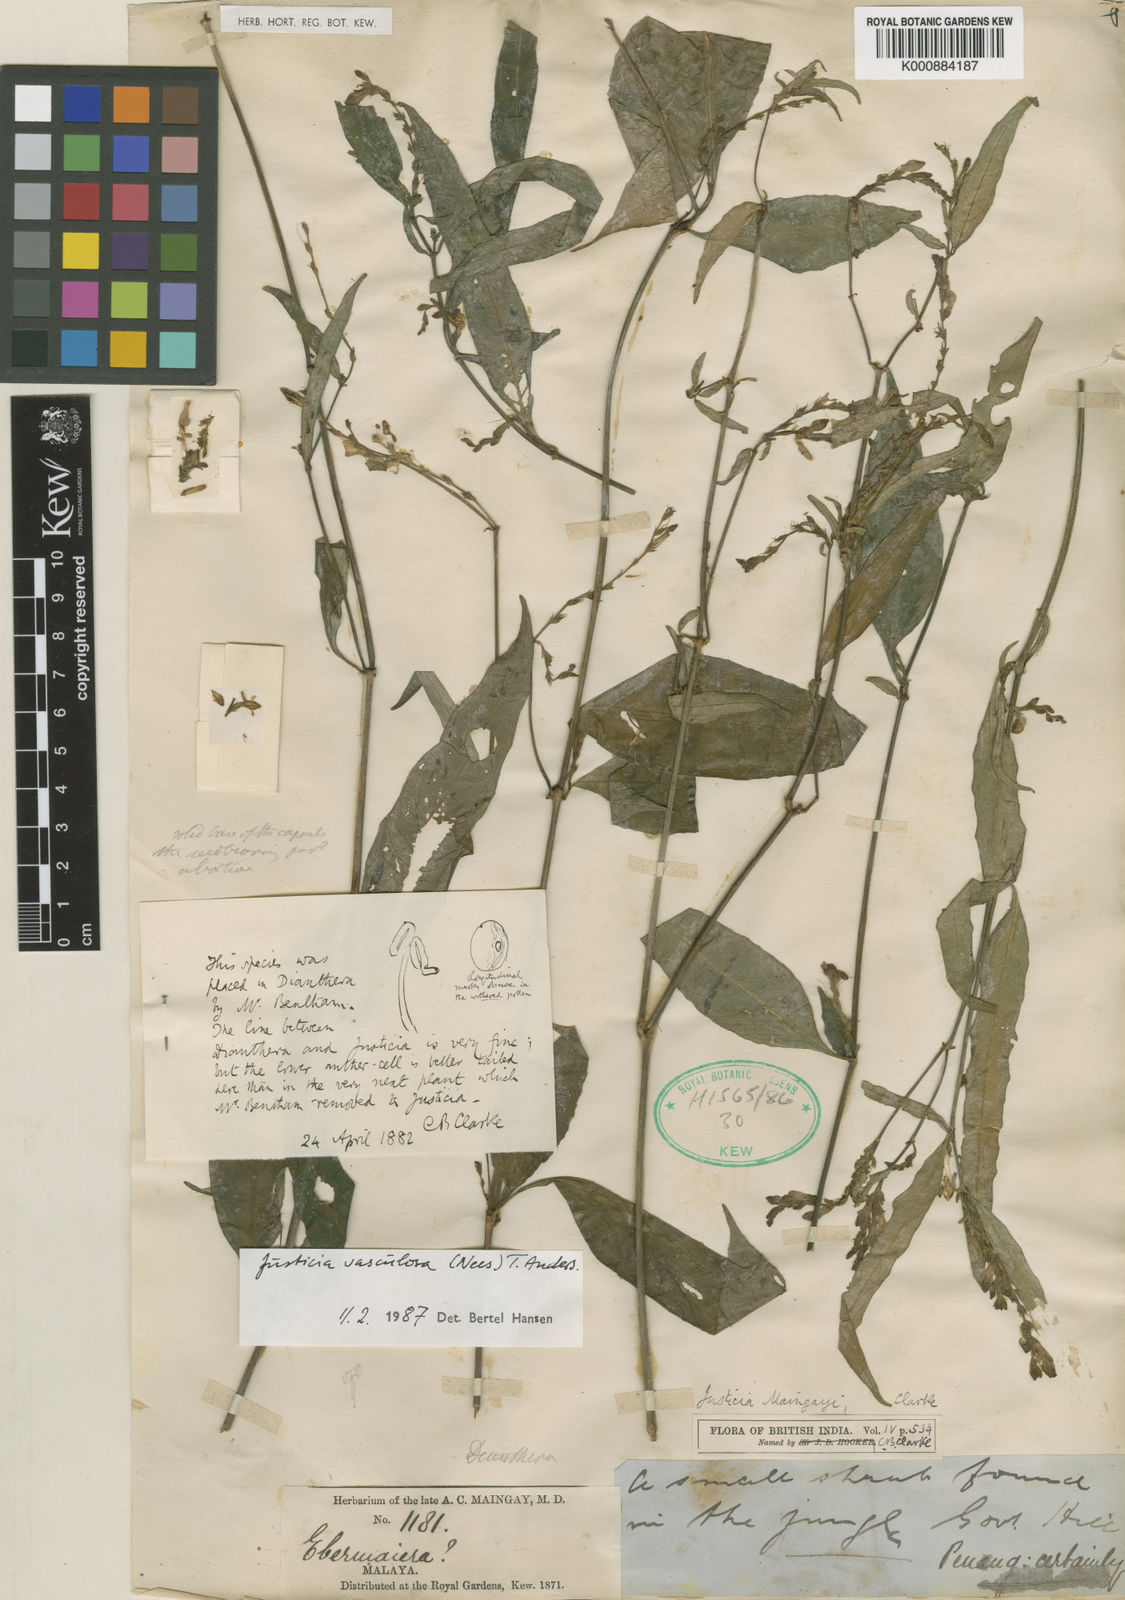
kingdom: Plantae
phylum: Tracheophyta
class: Magnoliopsida
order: Lamiales
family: Acanthaceae
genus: Justicia
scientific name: Justicia
